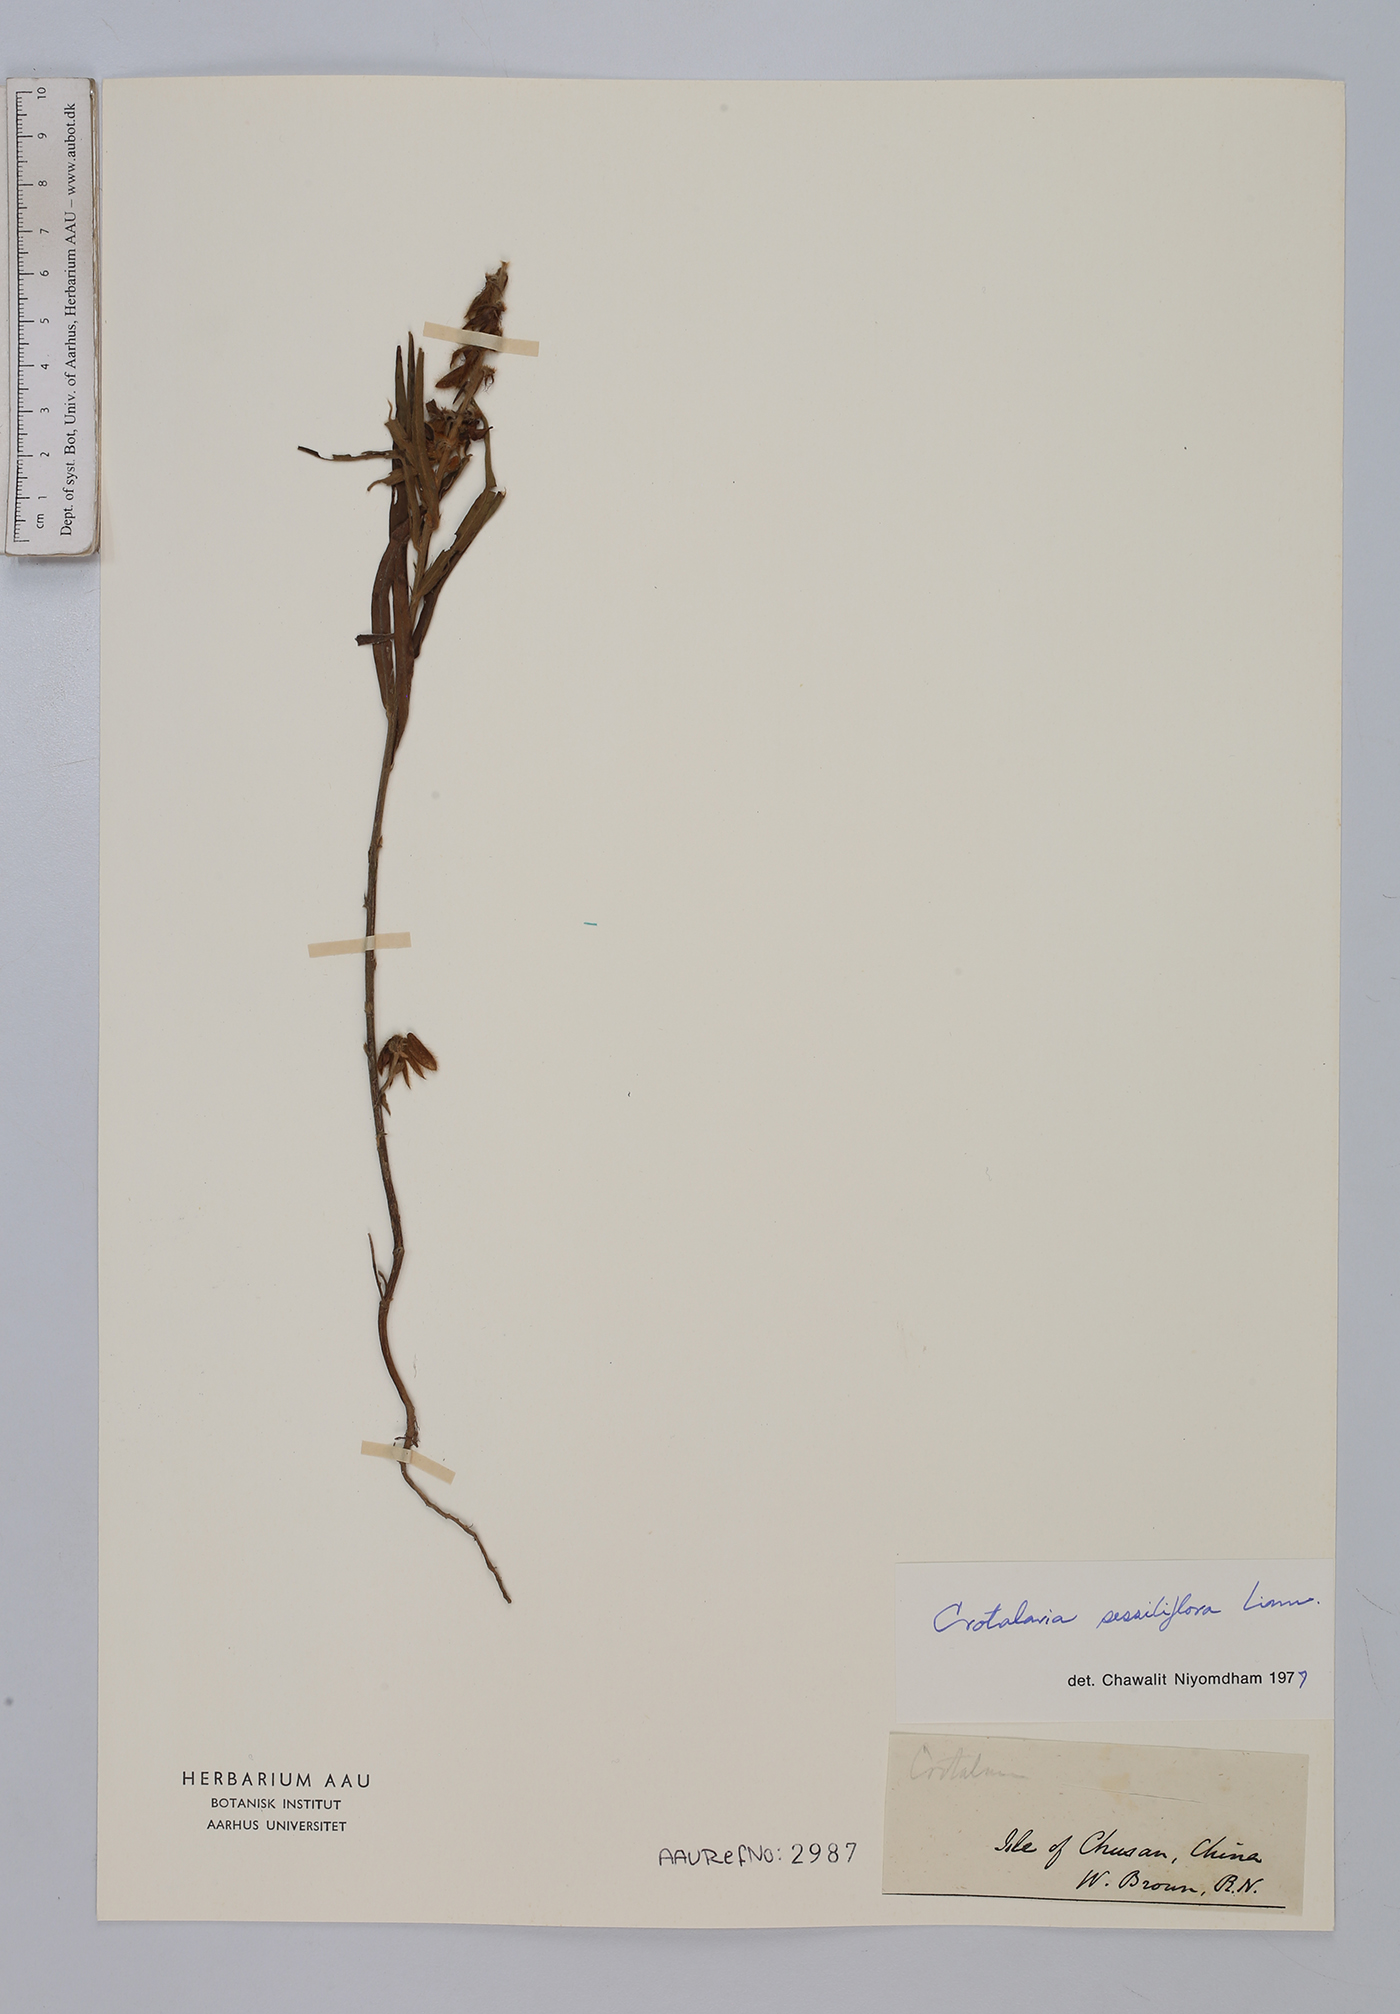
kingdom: Plantae
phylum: Tracheophyta
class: Magnoliopsida
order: Fabales
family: Fabaceae
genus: Crotalaria
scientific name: Crotalaria sessiliflora
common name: Rattlebox
